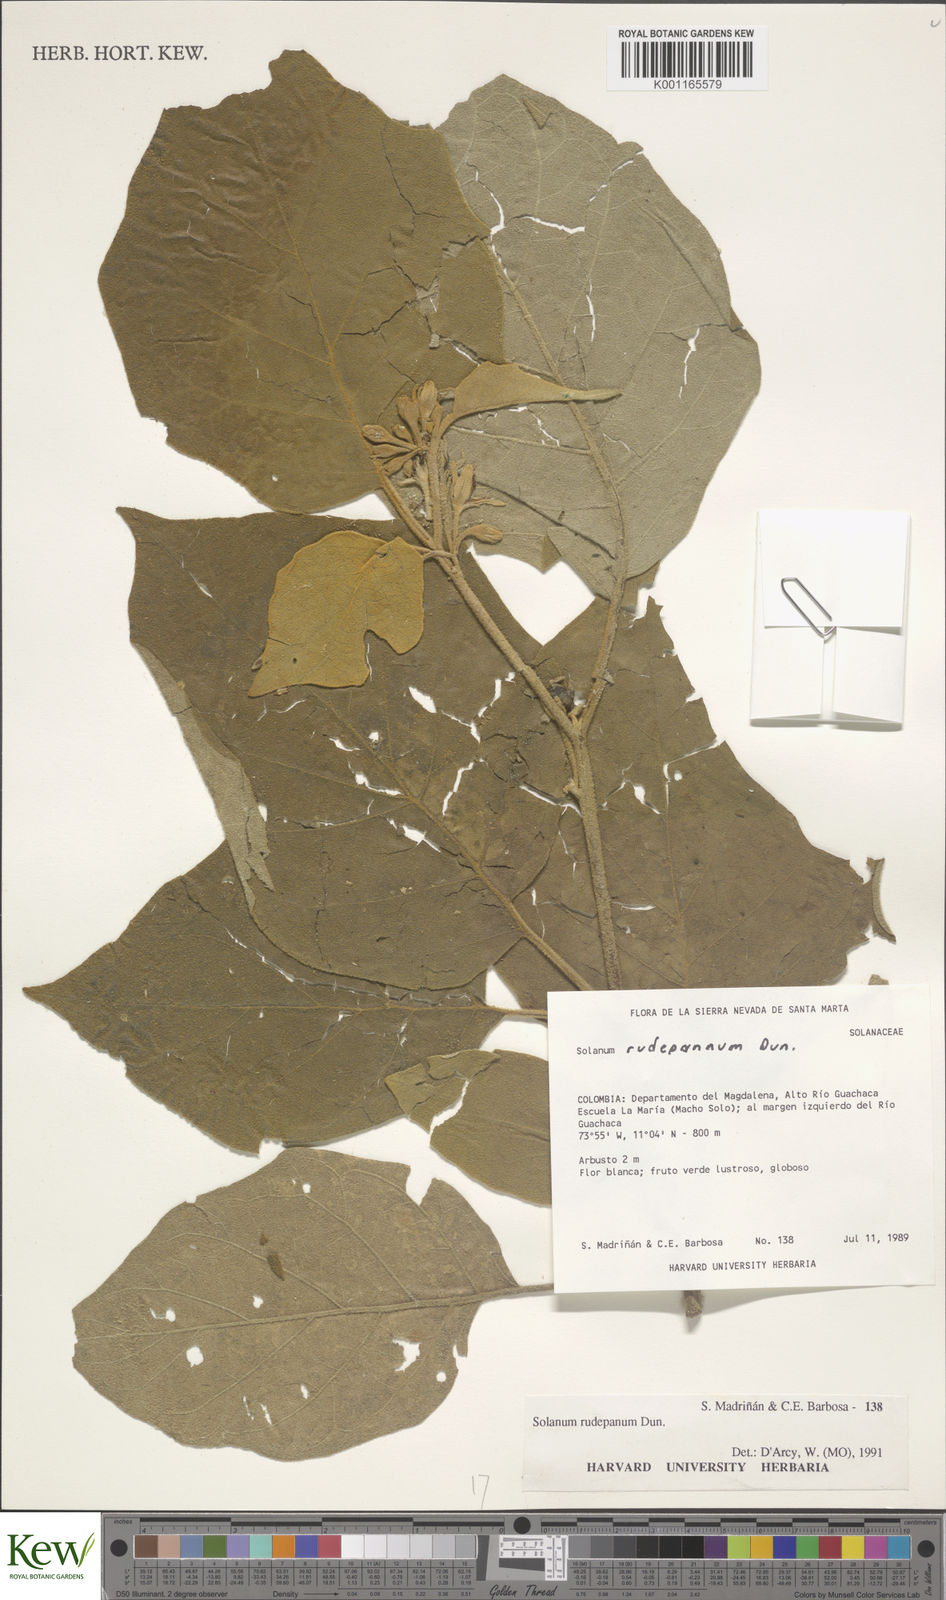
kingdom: Plantae
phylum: Tracheophyta
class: Magnoliopsida
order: Solanales
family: Solanaceae
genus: Solanum
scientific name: Solanum rude-pannum
